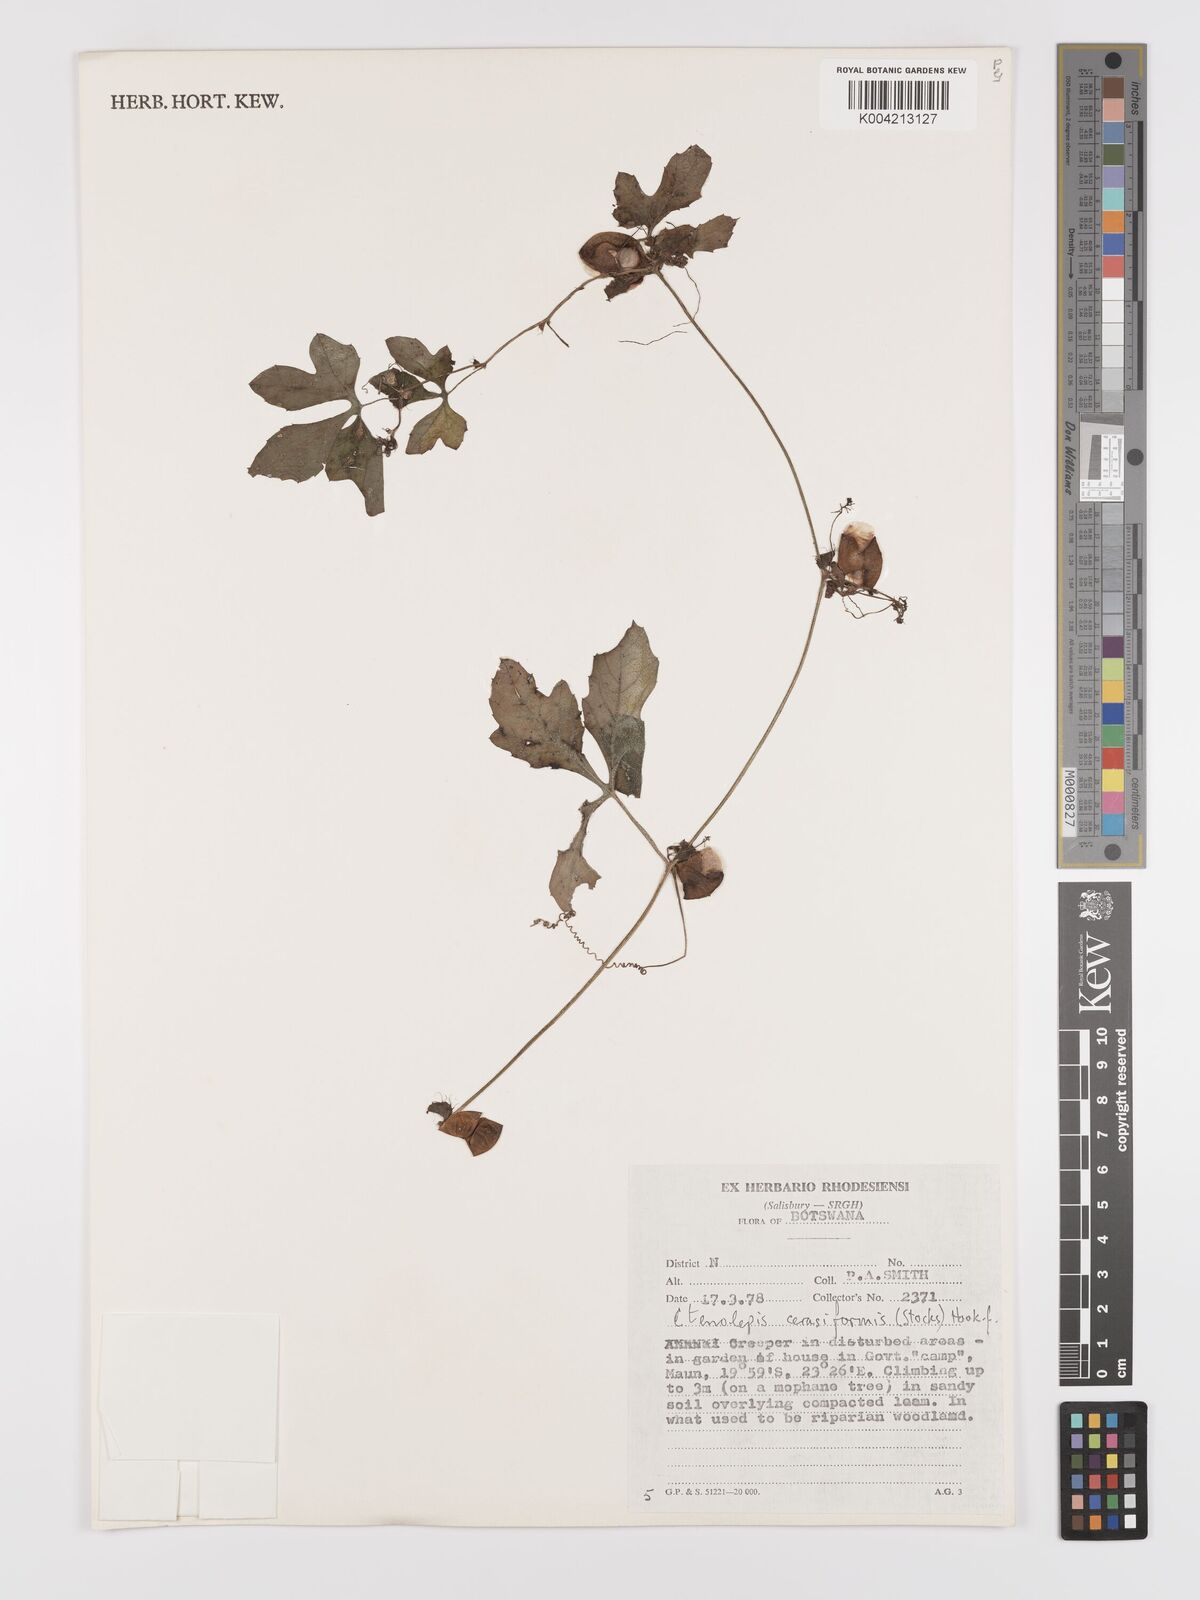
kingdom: Plantae
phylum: Tracheophyta
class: Magnoliopsida
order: Cucurbitales
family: Cucurbitaceae
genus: Blastania
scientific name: Blastania cerasiformis
